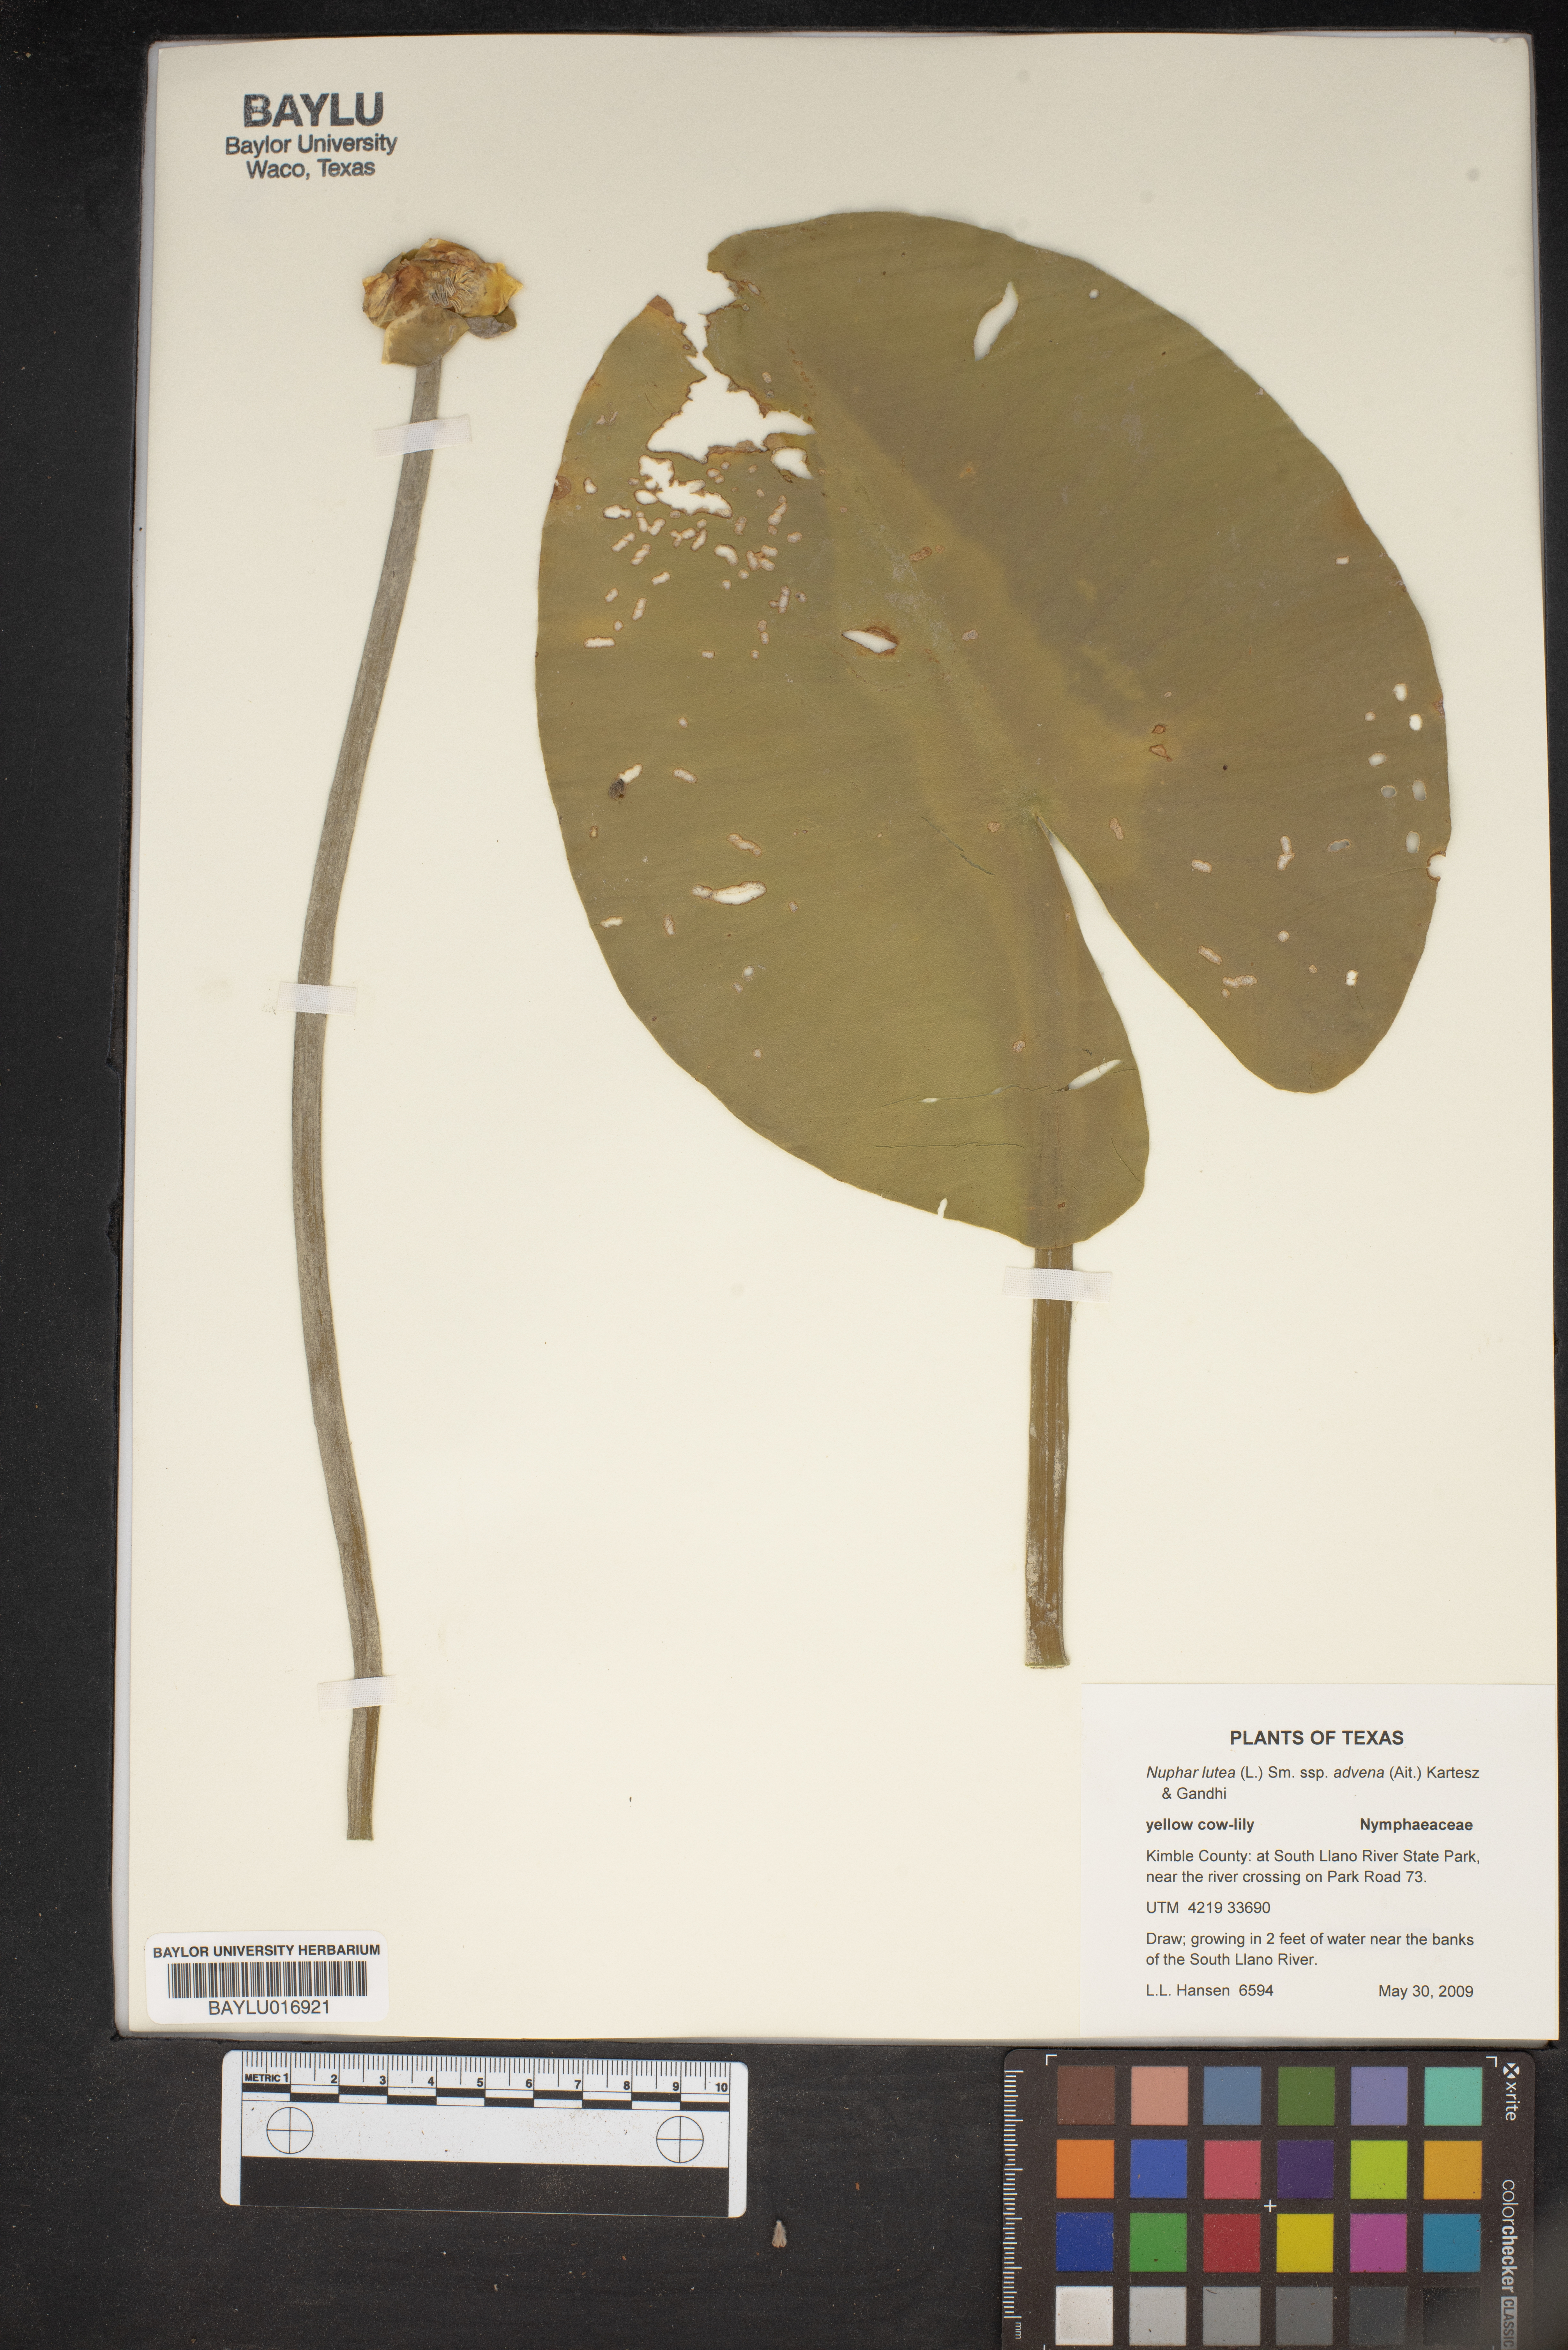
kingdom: Plantae
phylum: Tracheophyta
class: Magnoliopsida
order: Nymphaeales
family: Nymphaeaceae
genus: Nuphar
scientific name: Nuphar advena
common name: Spatter-dock
